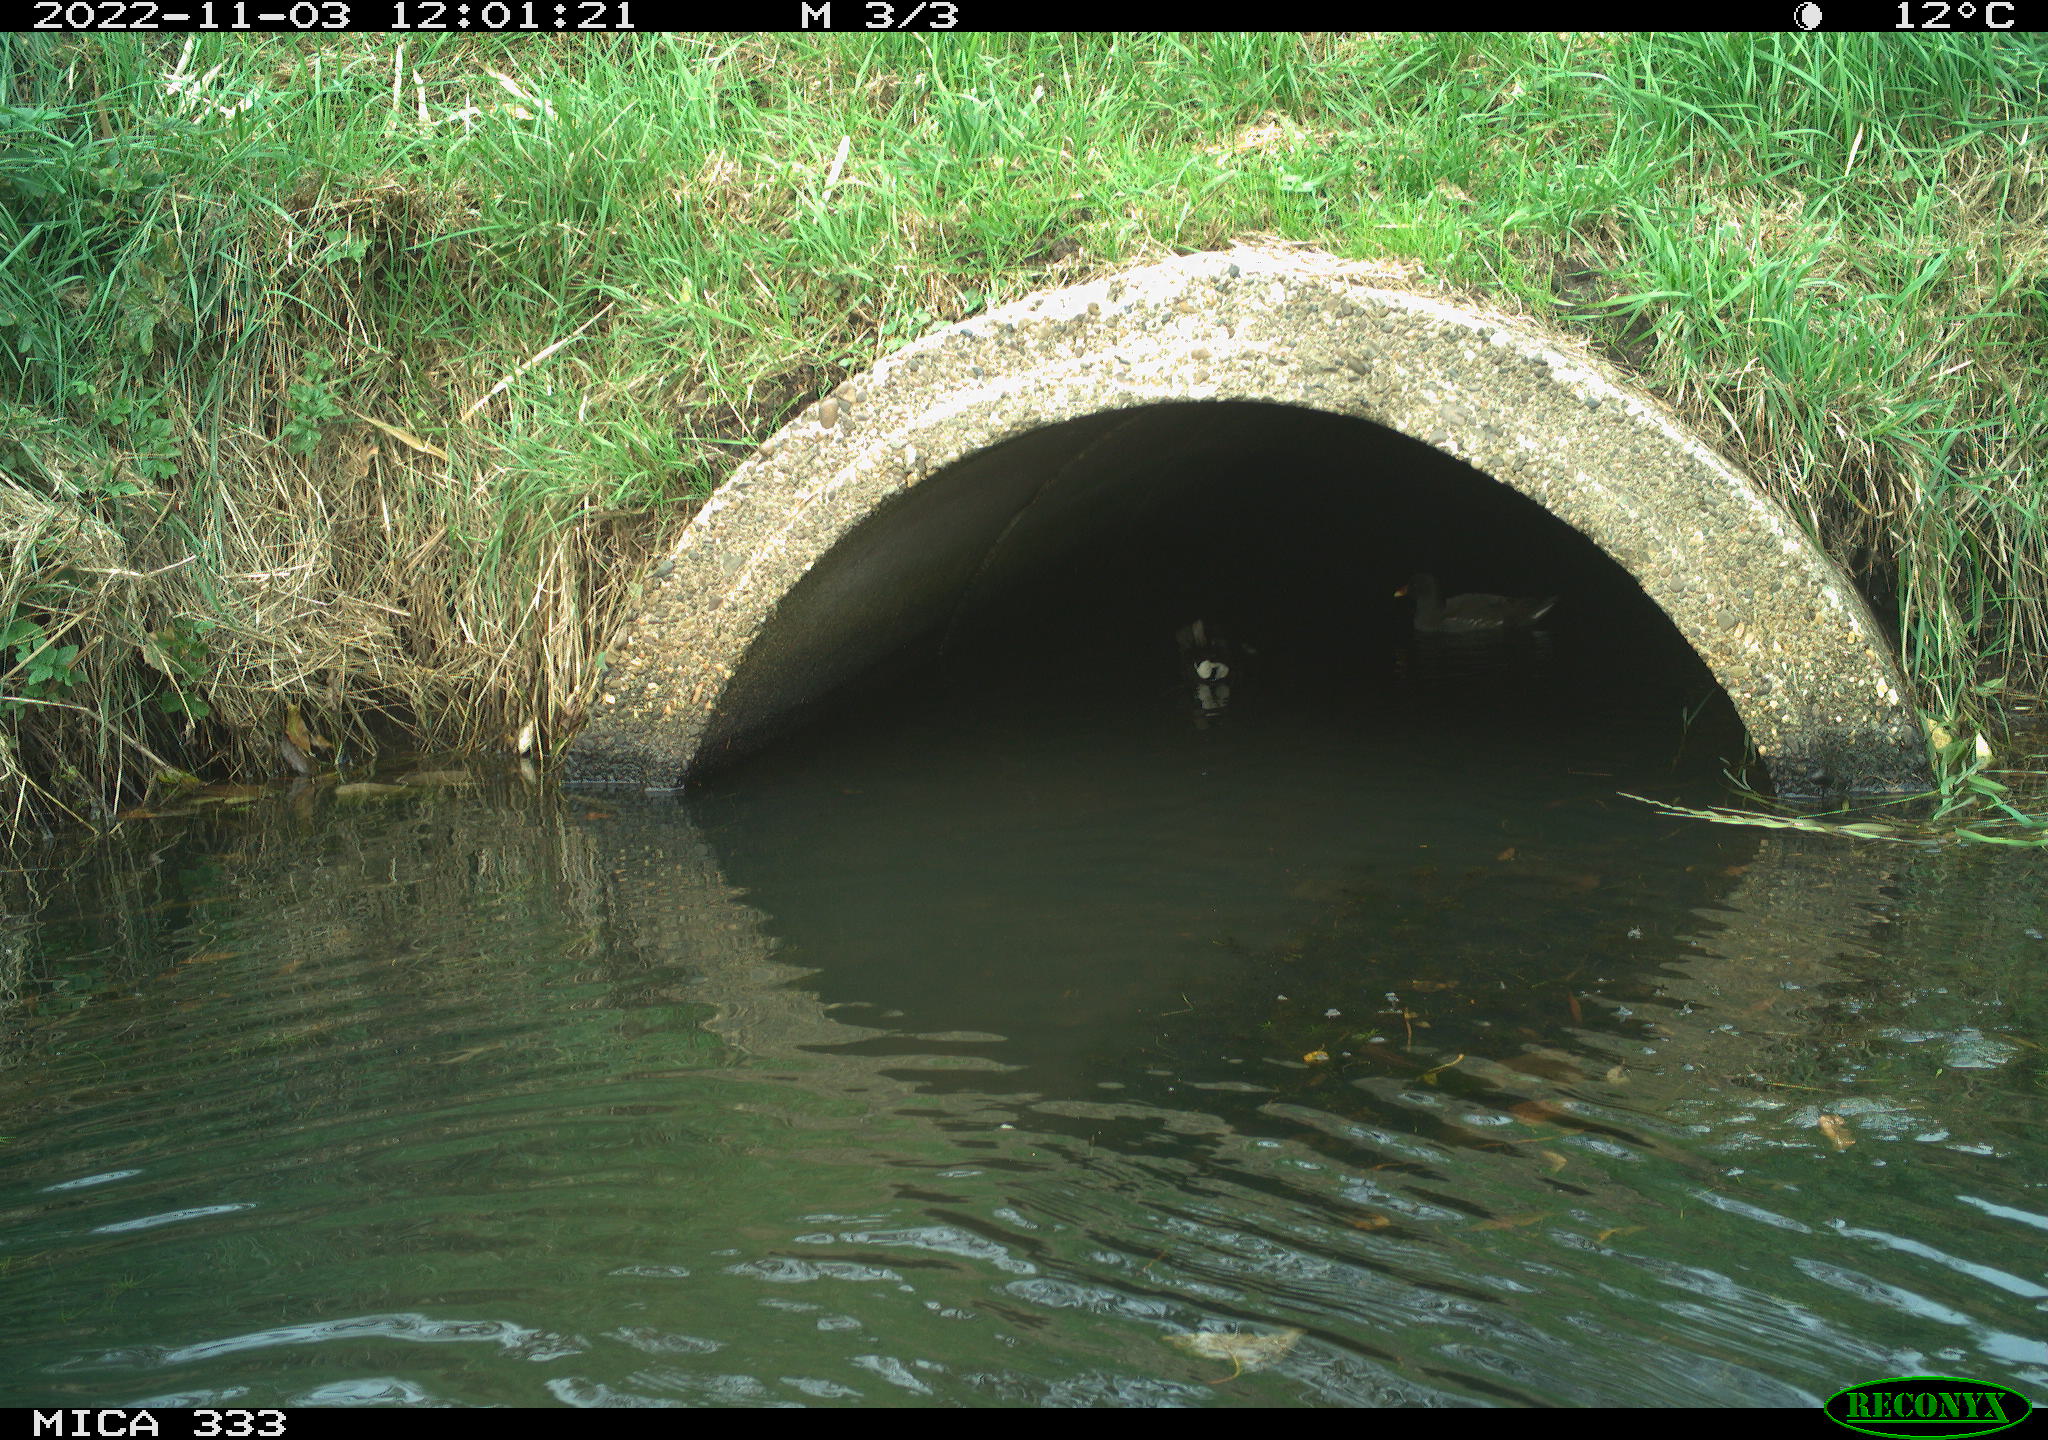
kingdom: Animalia
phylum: Chordata
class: Aves
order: Gruiformes
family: Rallidae
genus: Gallinula
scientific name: Gallinula chloropus
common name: Common moorhen
